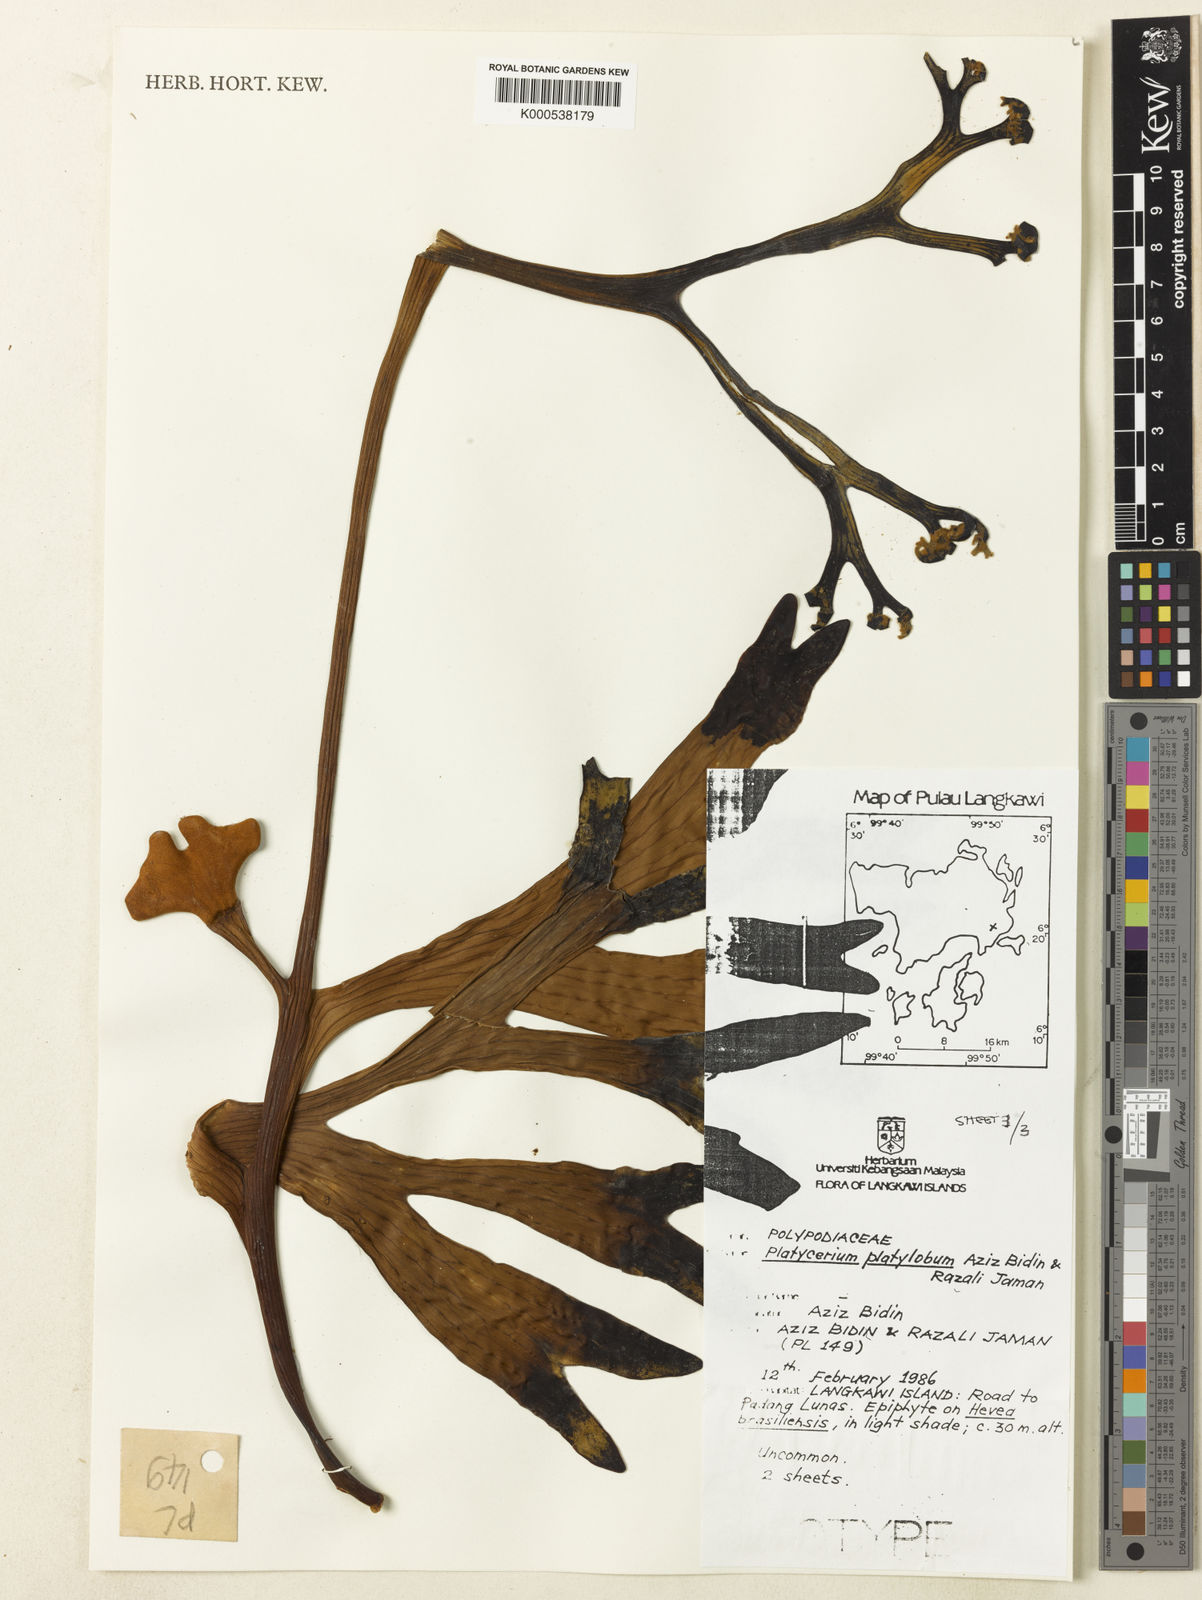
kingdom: Plantae
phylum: Tracheophyta
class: Polypodiopsida
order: Polypodiales
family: Polypodiaceae
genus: Platycerium
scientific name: Platycerium coronarium
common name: Elkhorn fern
